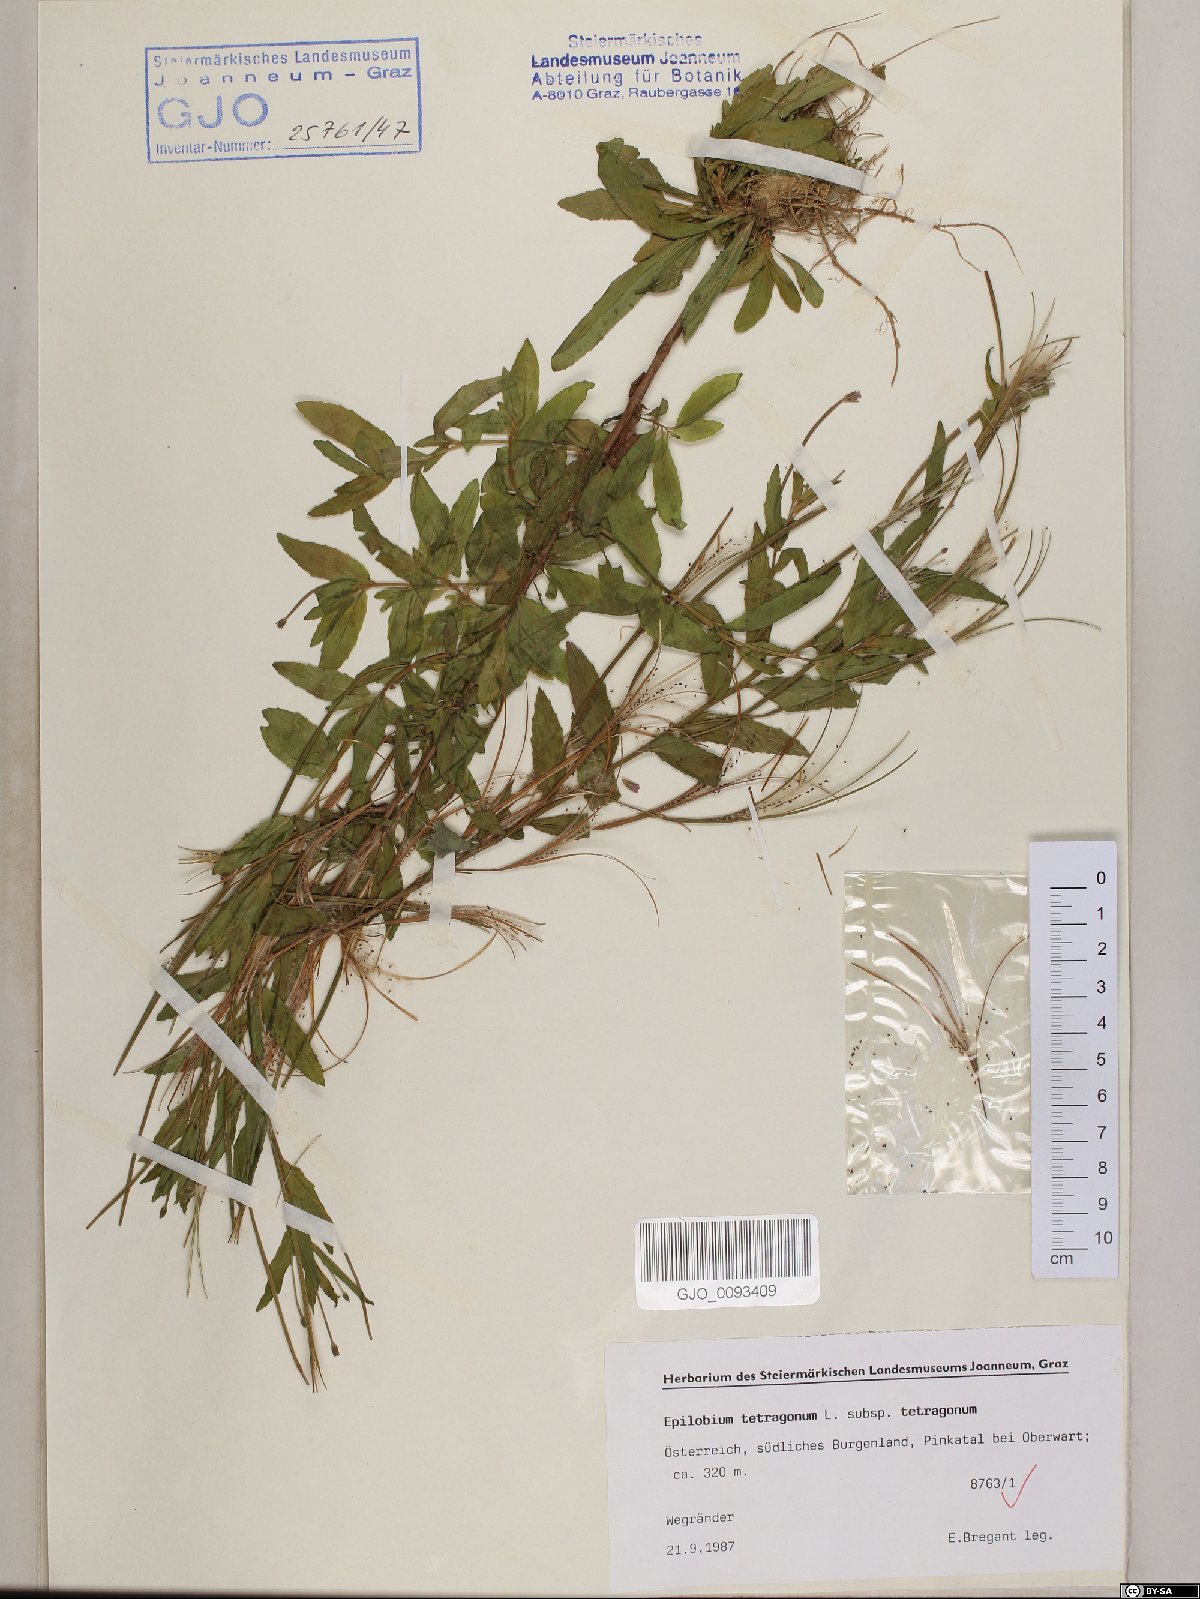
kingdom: Plantae
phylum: Tracheophyta
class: Magnoliopsida
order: Myrtales
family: Onagraceae
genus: Epilobium
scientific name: Epilobium tetragonum
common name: Square-stemmed willowherb
